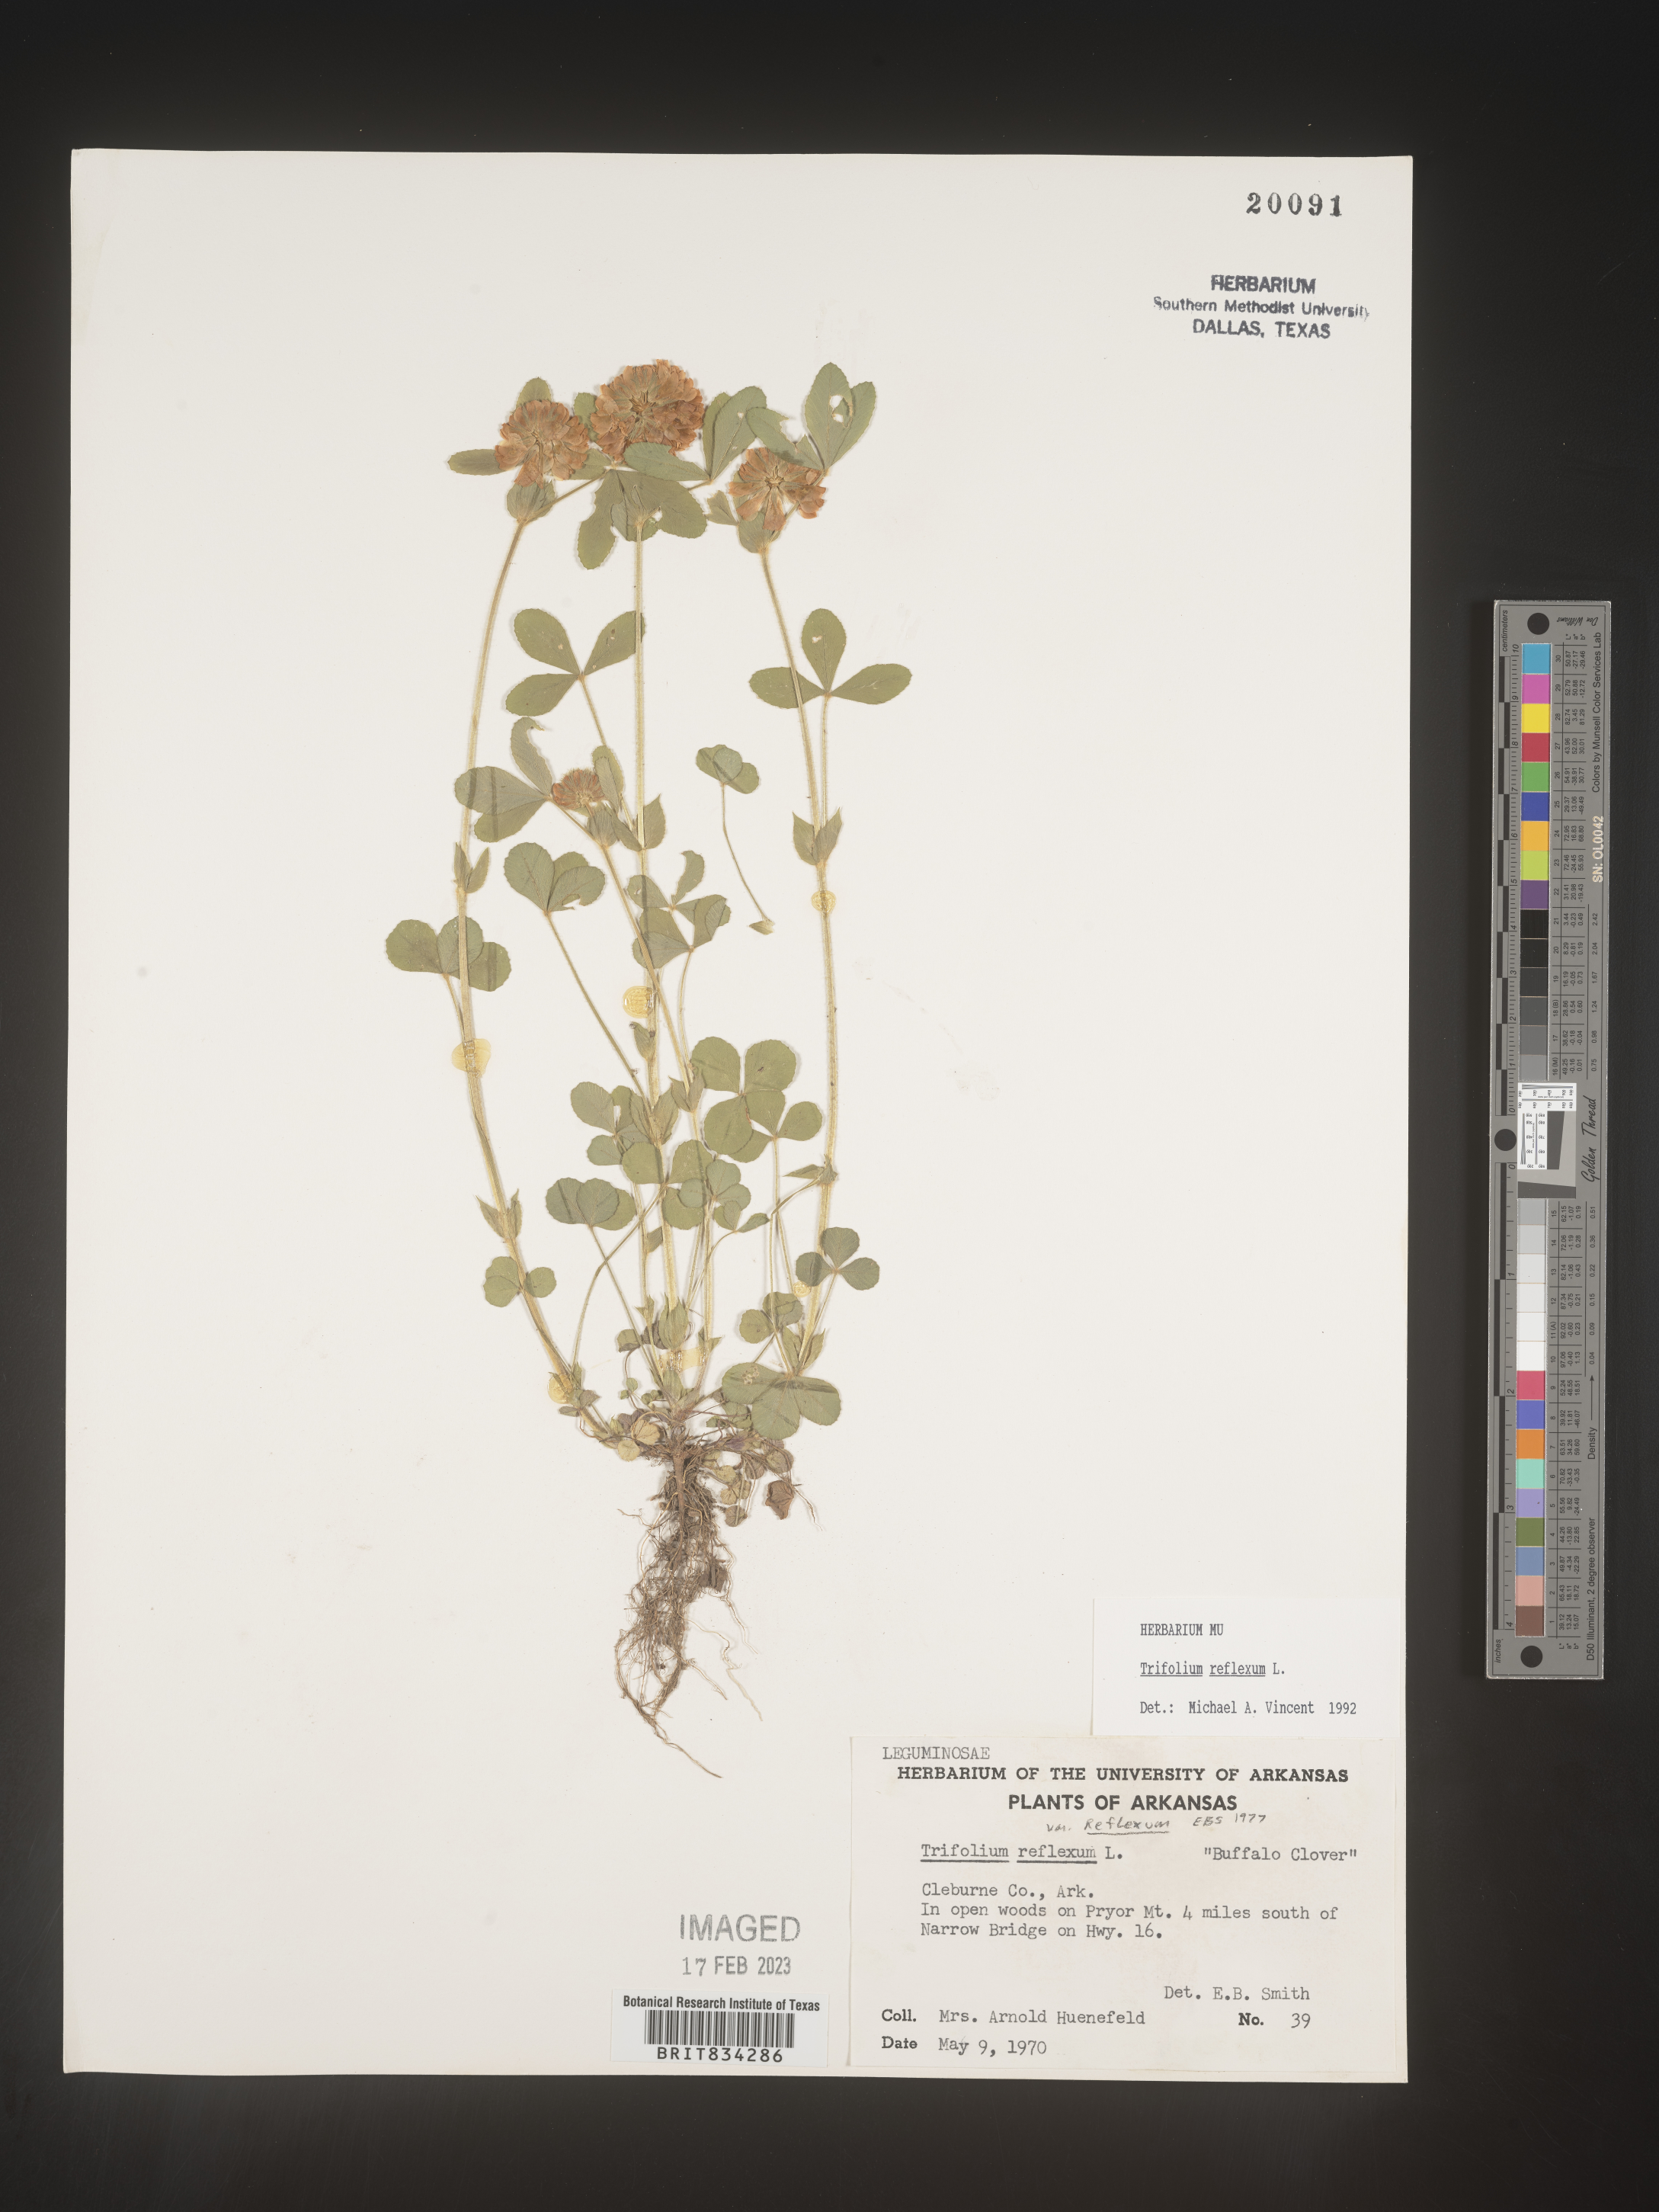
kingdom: Plantae
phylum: Tracheophyta
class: Magnoliopsida
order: Fabales
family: Fabaceae
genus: Trifolium
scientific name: Trifolium reflexum
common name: Buffalo clover
